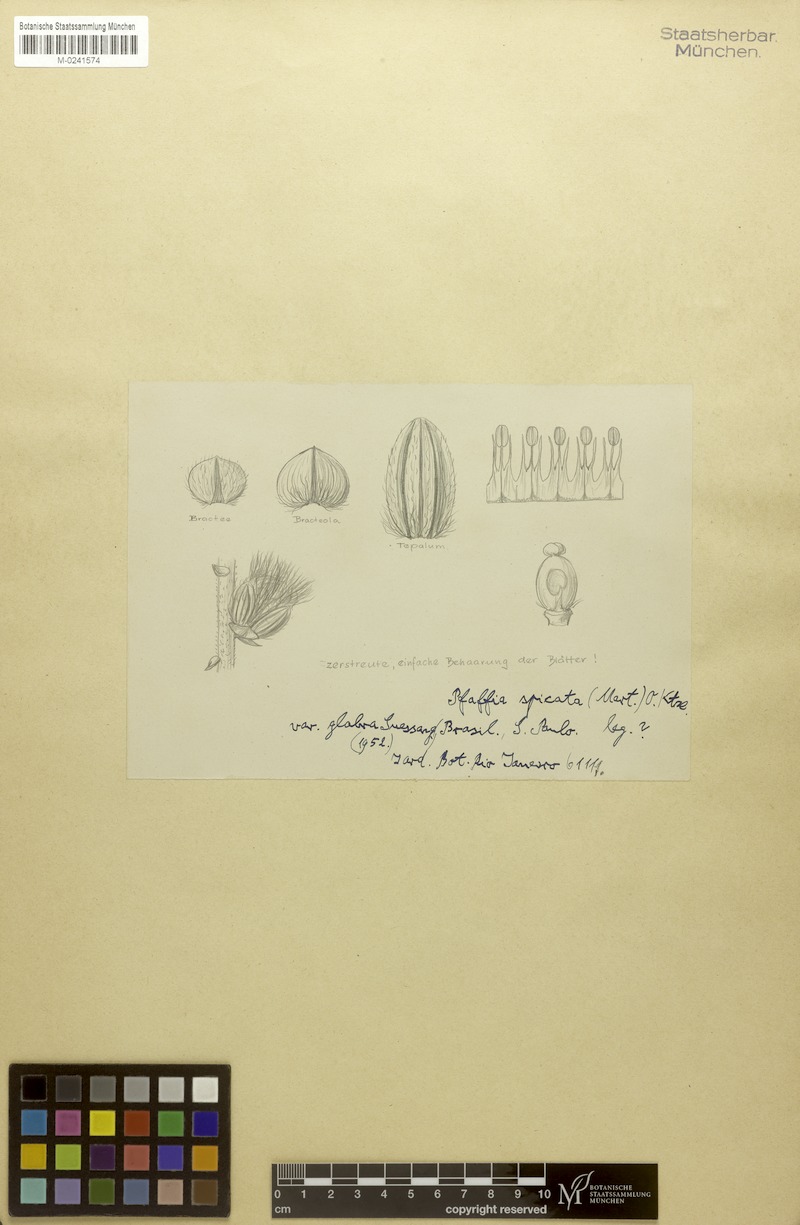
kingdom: Plantae
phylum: Tracheophyta
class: Magnoliopsida
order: Caryophyllales
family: Amaranthaceae
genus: Hebanthe
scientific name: Hebanthe spicata
